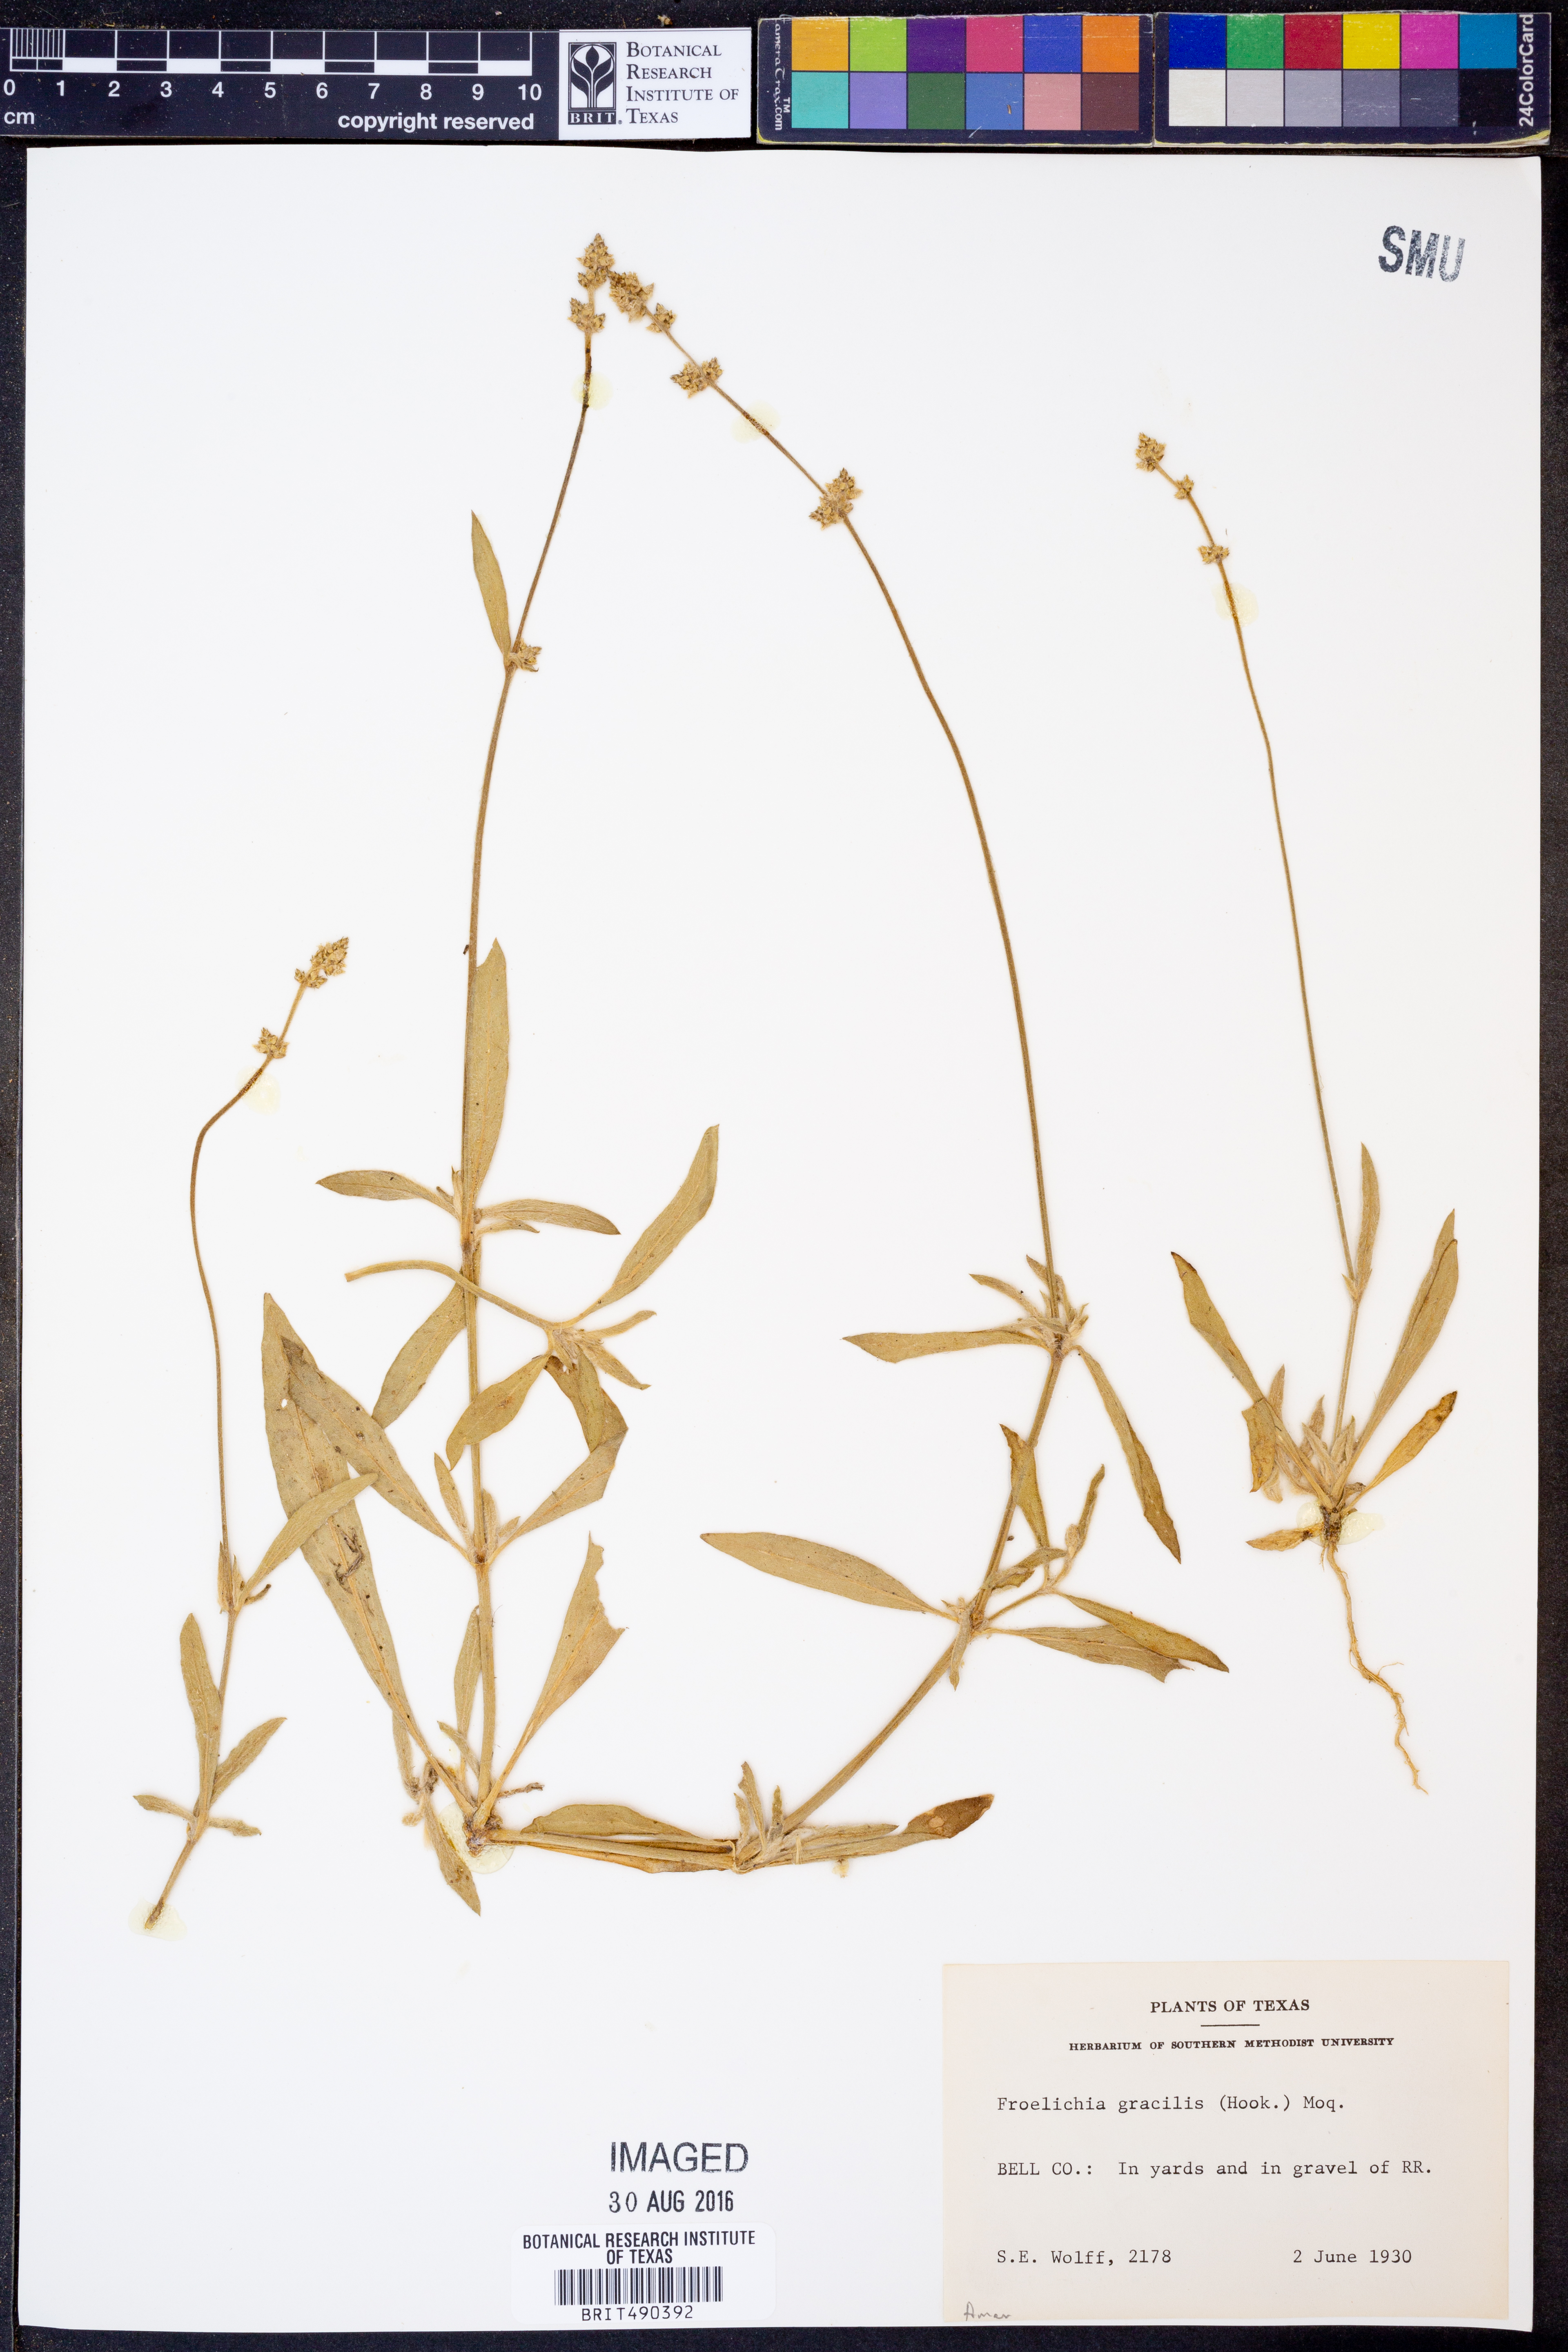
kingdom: Plantae
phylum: Tracheophyta
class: Magnoliopsida
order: Caryophyllales
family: Amaranthaceae
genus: Froelichia
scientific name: Froelichia gracilis
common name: Slender cottonweed
